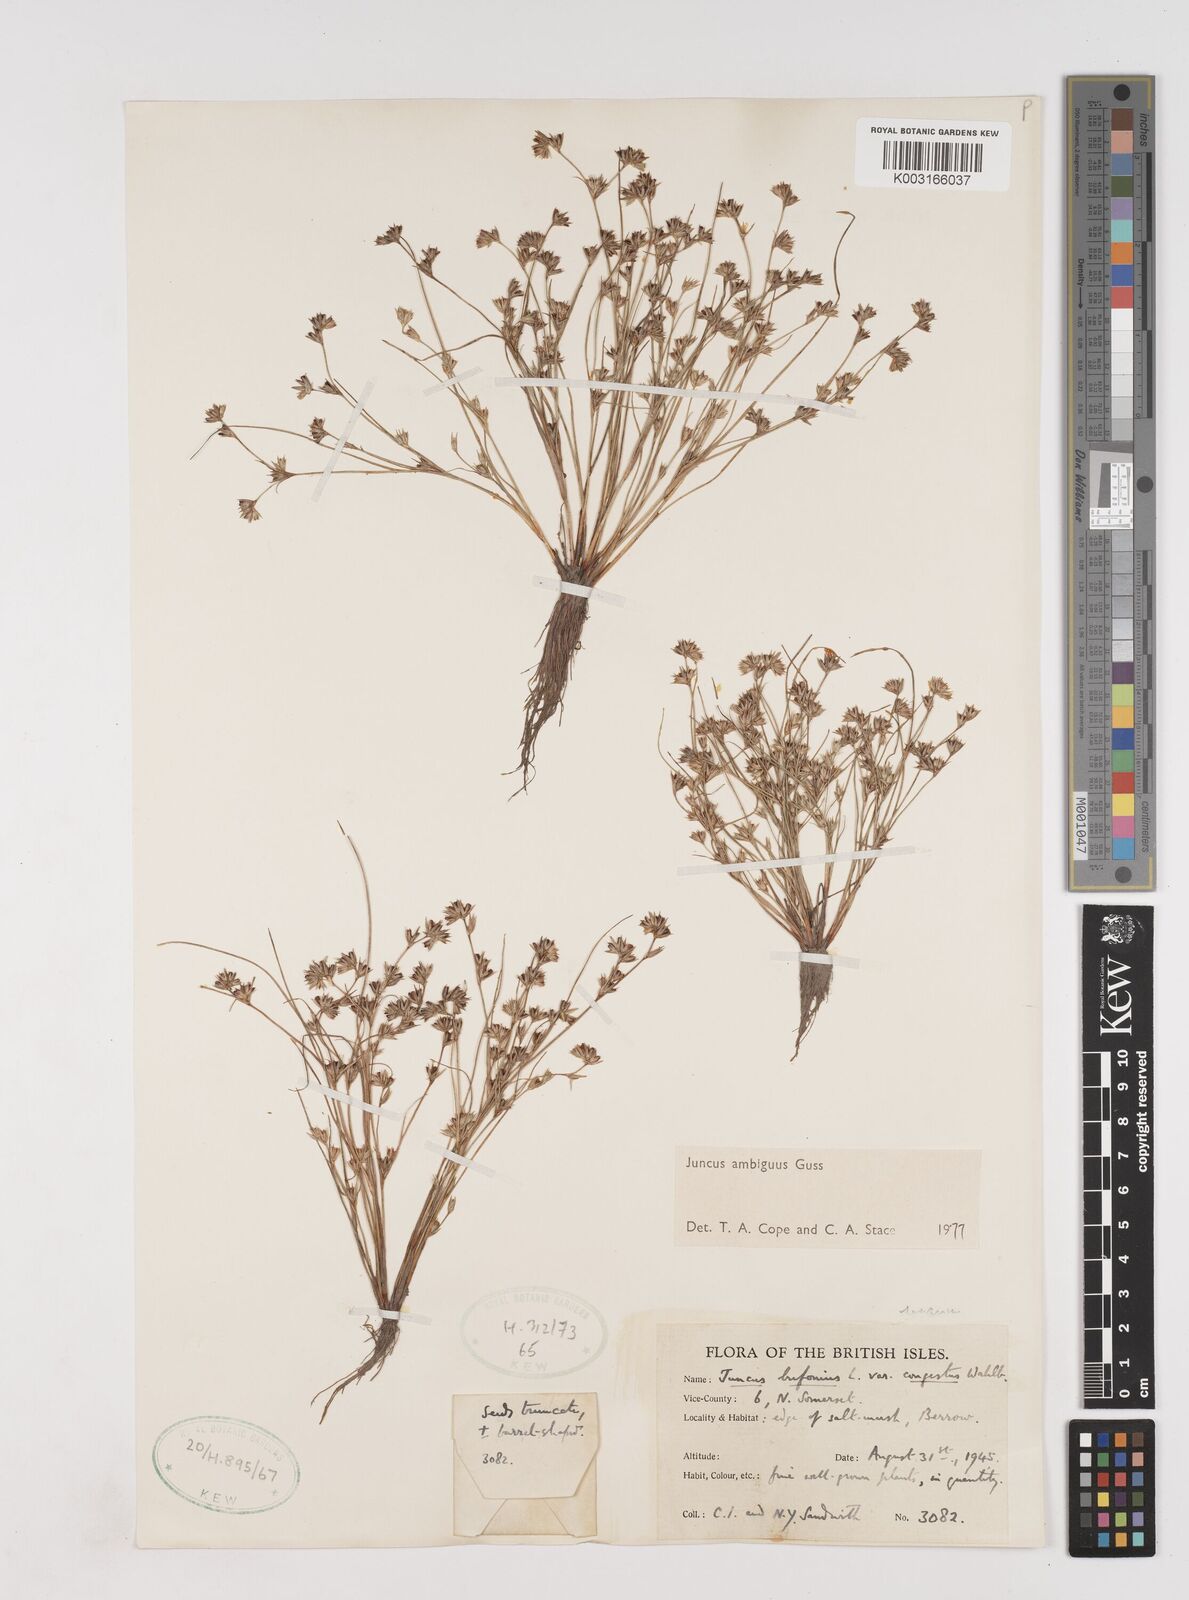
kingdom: Plantae
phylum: Tracheophyta
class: Liliopsida
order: Poales
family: Juncaceae
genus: Juncus
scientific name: Juncus hybridus
